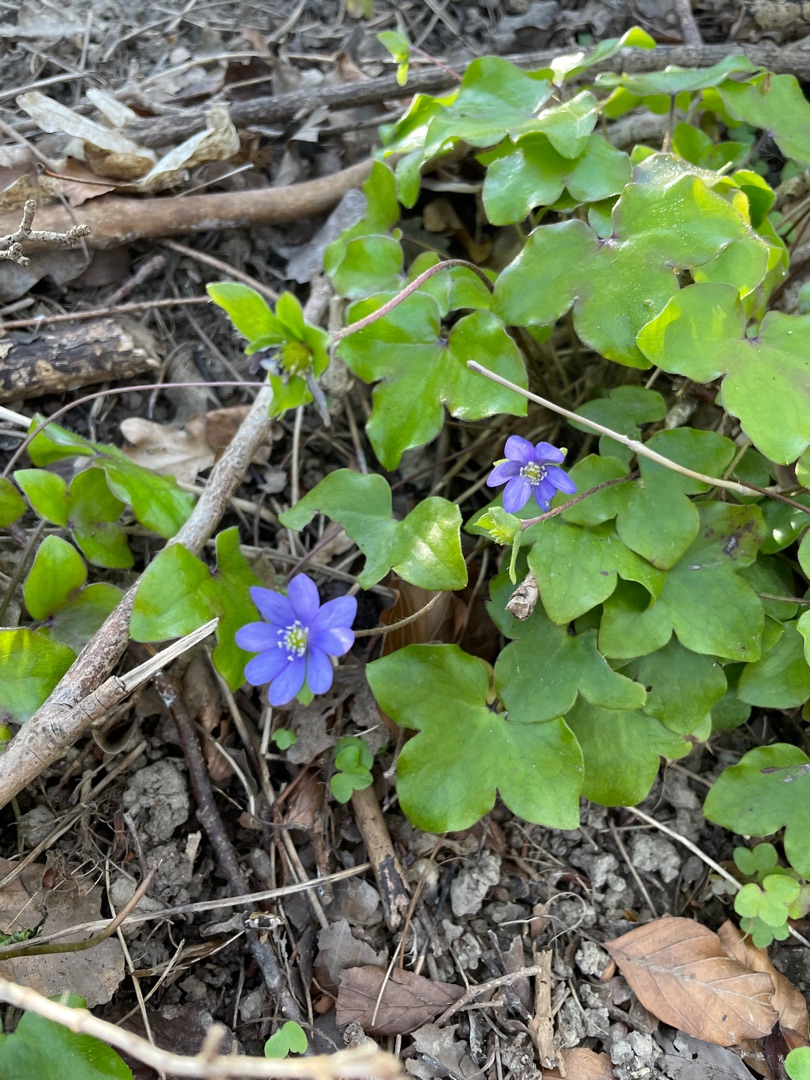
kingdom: Plantae
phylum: Tracheophyta
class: Magnoliopsida
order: Ranunculales
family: Ranunculaceae
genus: Hepatica
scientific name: Hepatica nobilis
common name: Blå anemone
